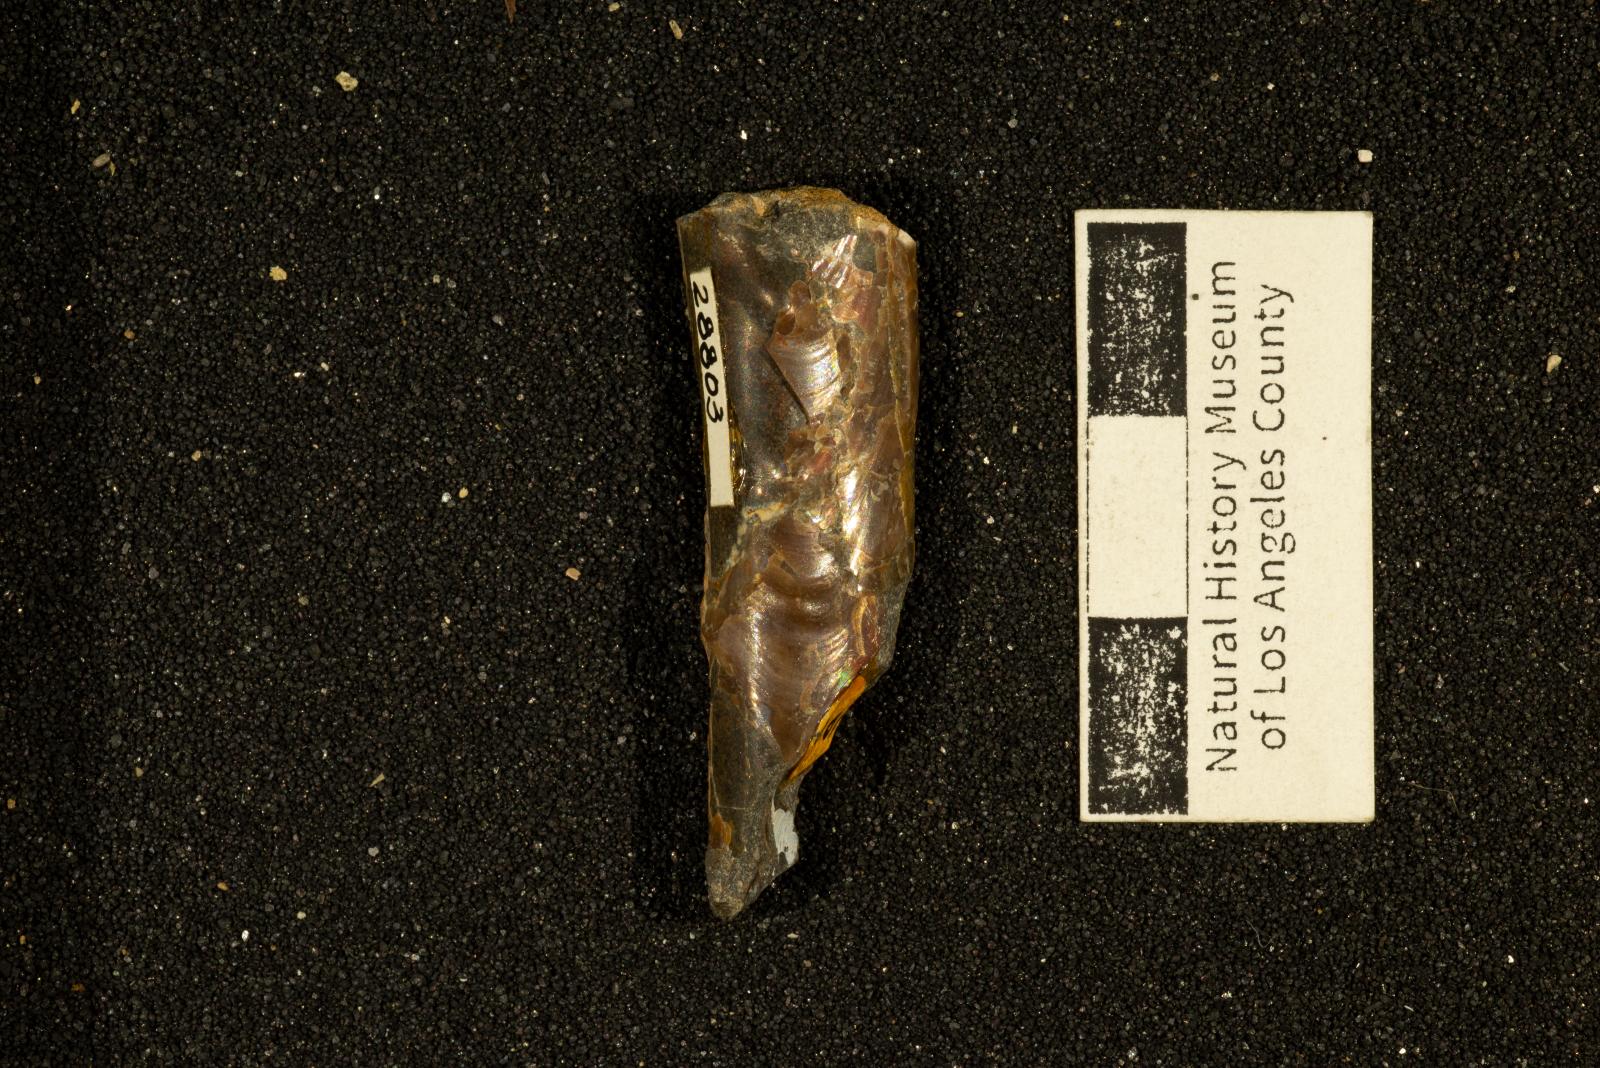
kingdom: Animalia
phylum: Mollusca
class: Cephalopoda
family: Baculitidae
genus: Baculites
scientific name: Baculites boulei
